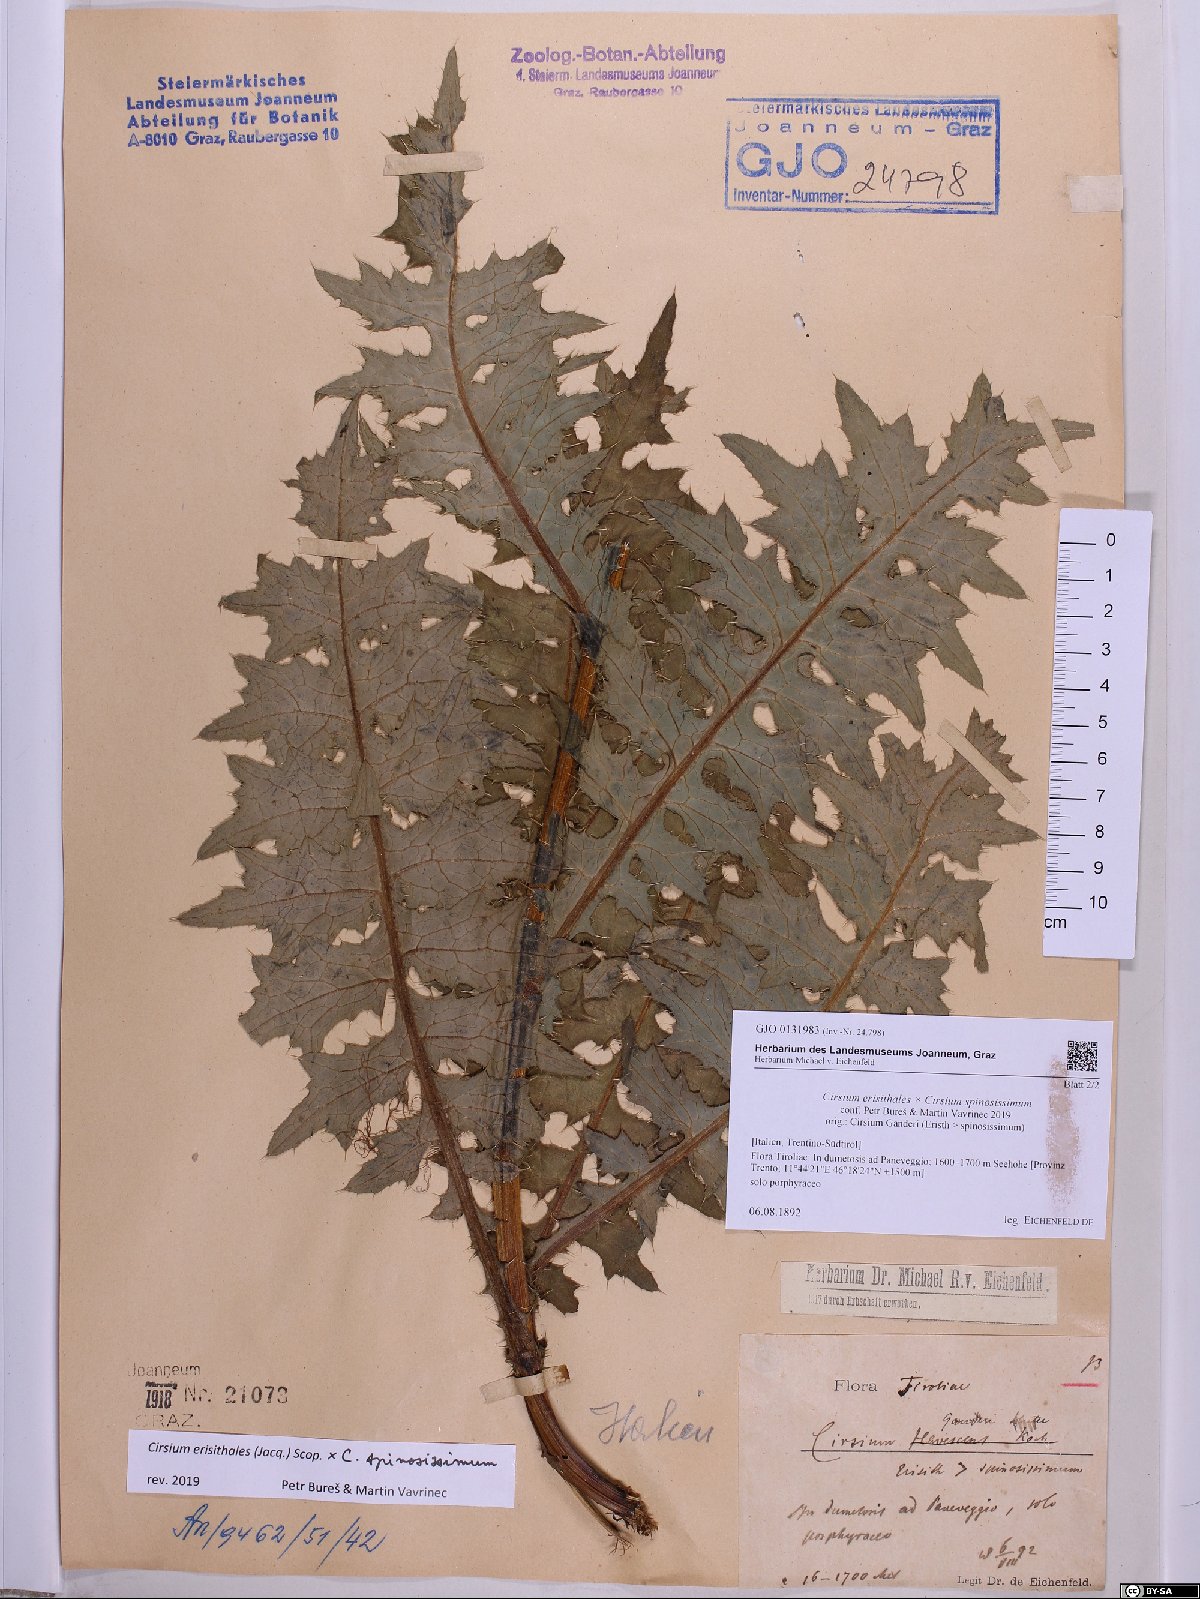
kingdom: Plantae
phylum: Tracheophyta
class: Magnoliopsida
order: Asterales
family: Asteraceae
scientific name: Asteraceae
